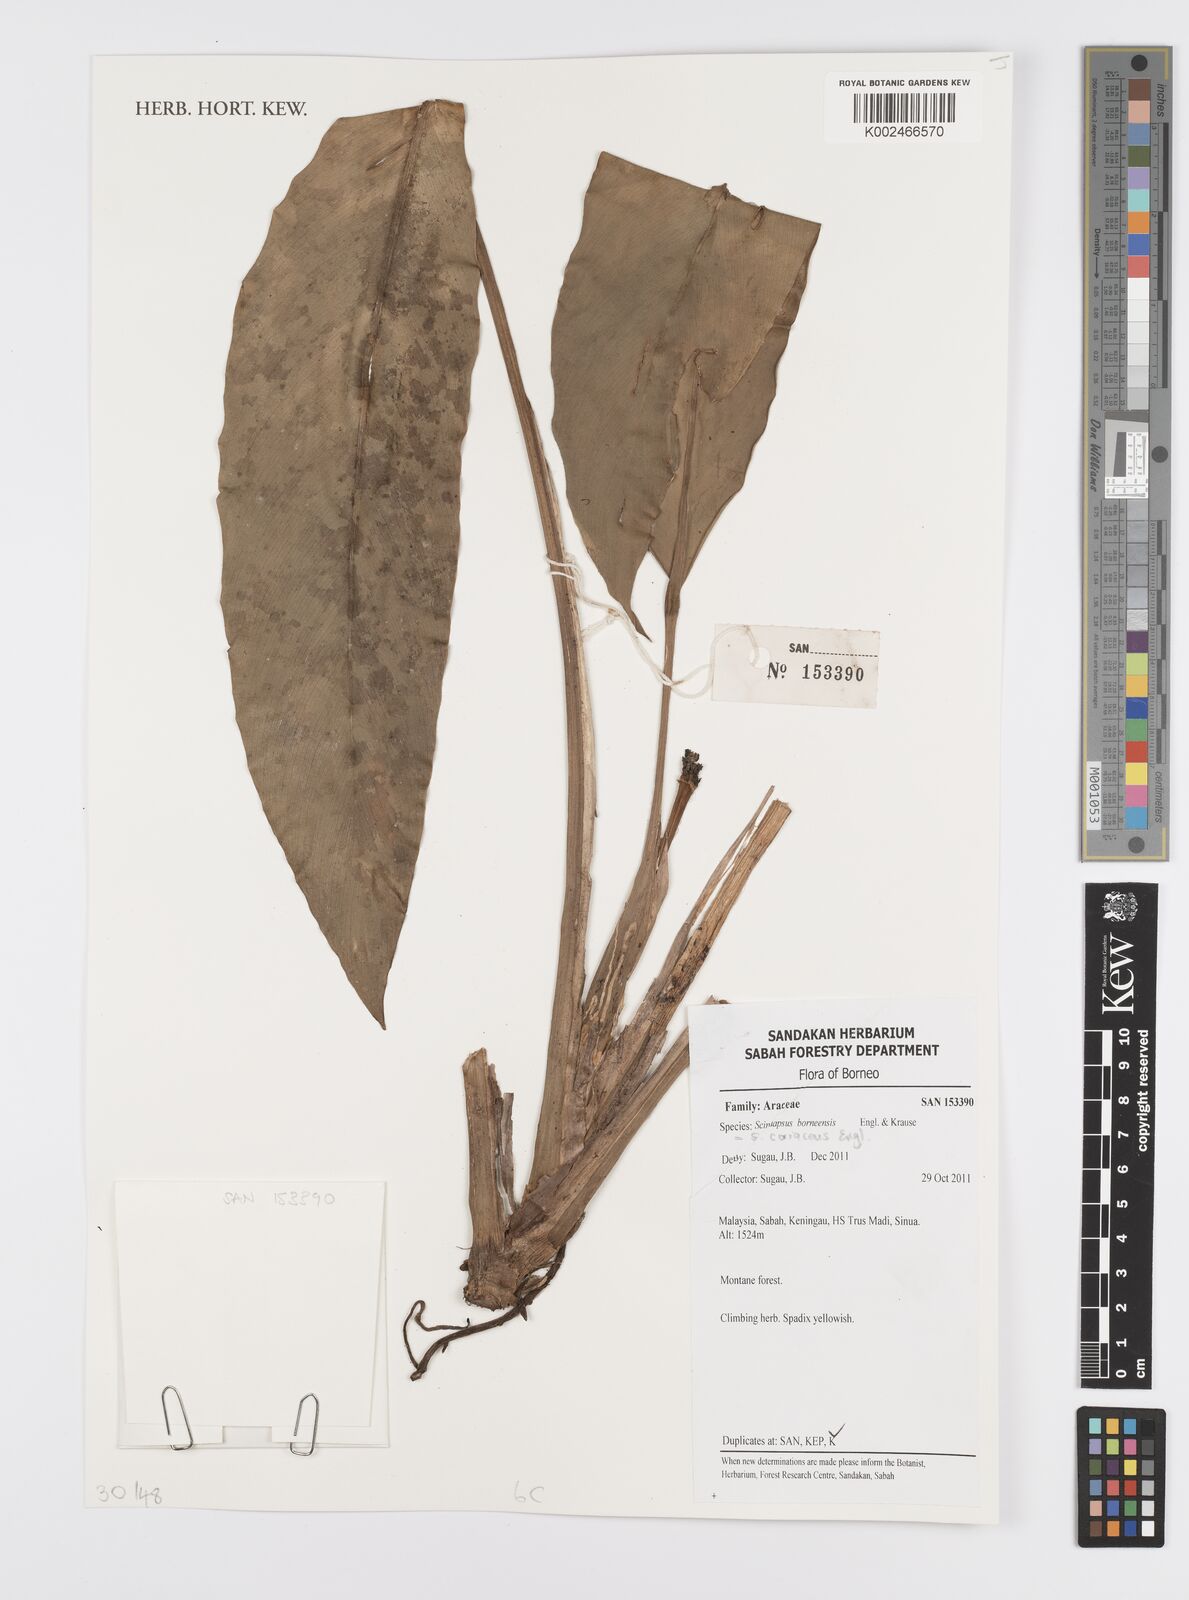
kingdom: Plantae
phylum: Tracheophyta
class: Liliopsida
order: Alismatales
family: Araceae
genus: Scindapsus
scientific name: Scindapsus coriaceus
